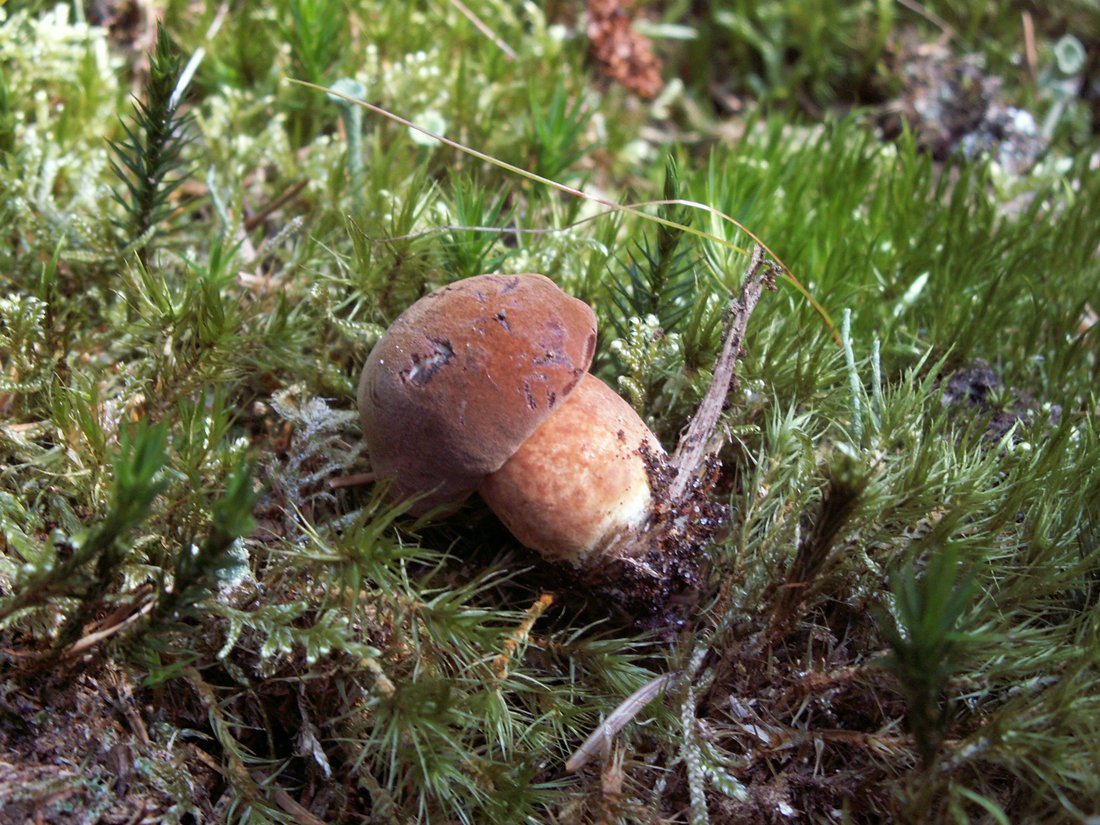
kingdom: Fungi
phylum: Basidiomycota
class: Agaricomycetes
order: Boletales
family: Boletaceae
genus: Imleria
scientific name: Imleria badia
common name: brunstokket rørhat
